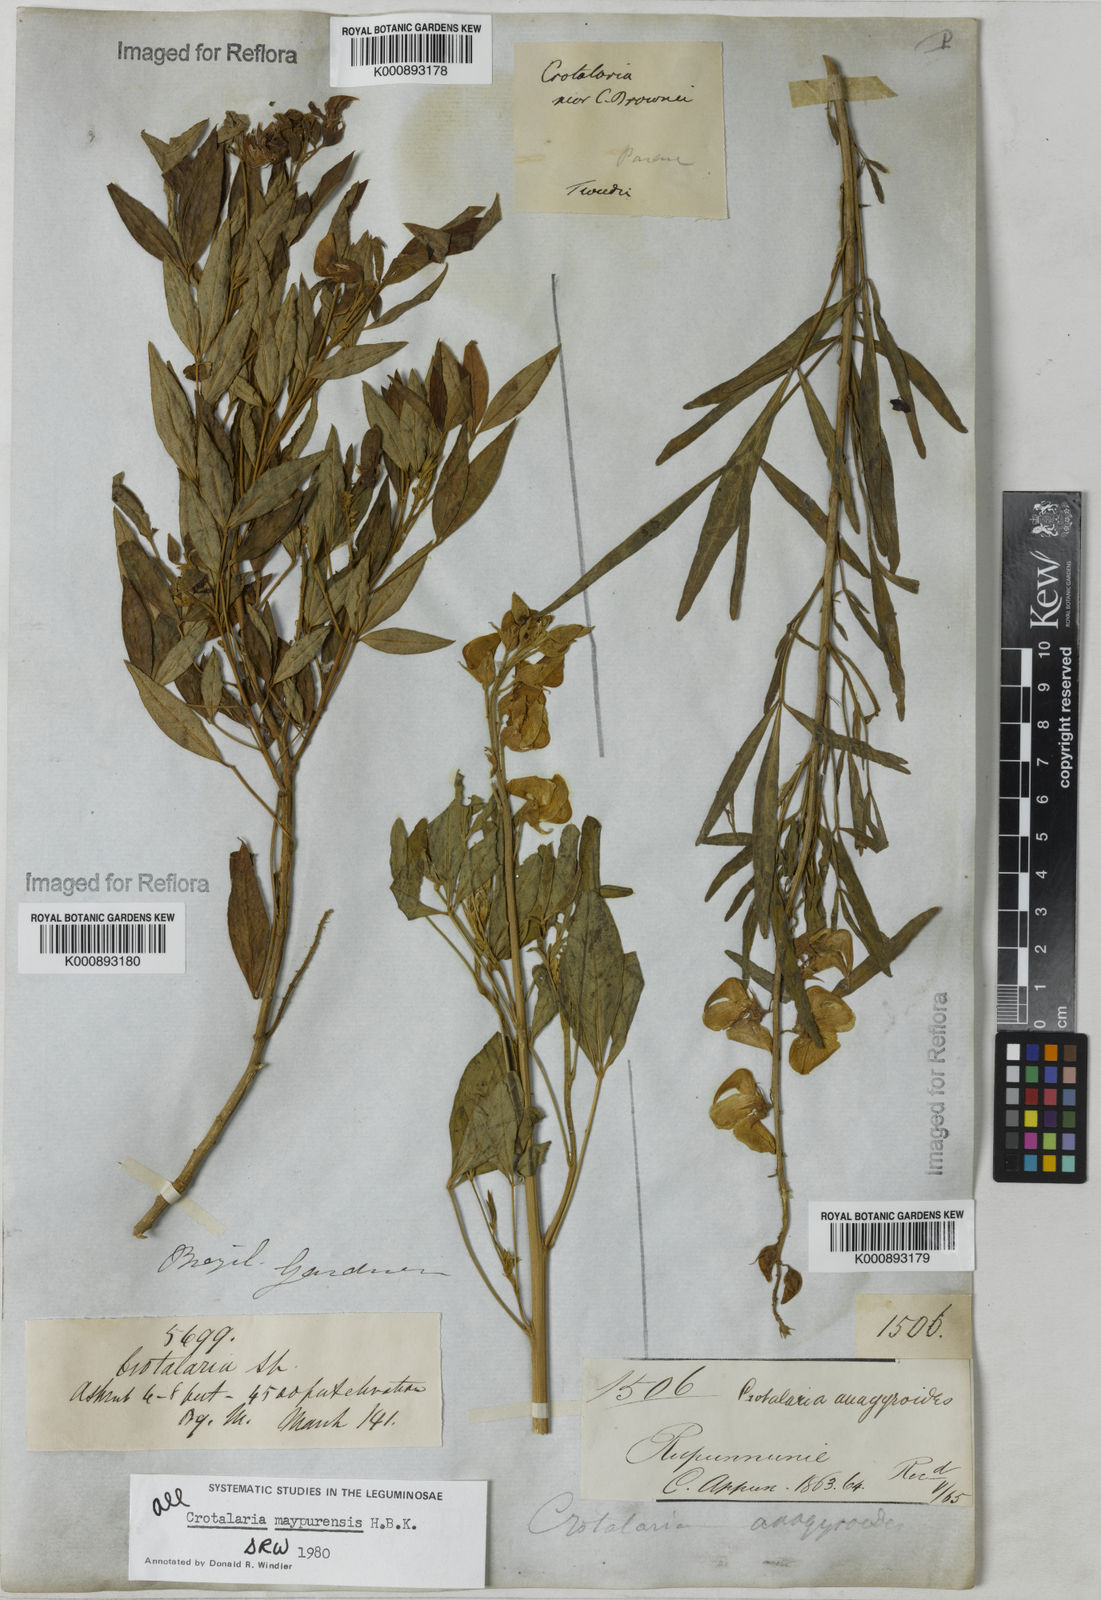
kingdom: Plantae
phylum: Tracheophyta
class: Magnoliopsida
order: Fabales
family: Fabaceae
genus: Crotalaria
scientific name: Crotalaria maypurensis
